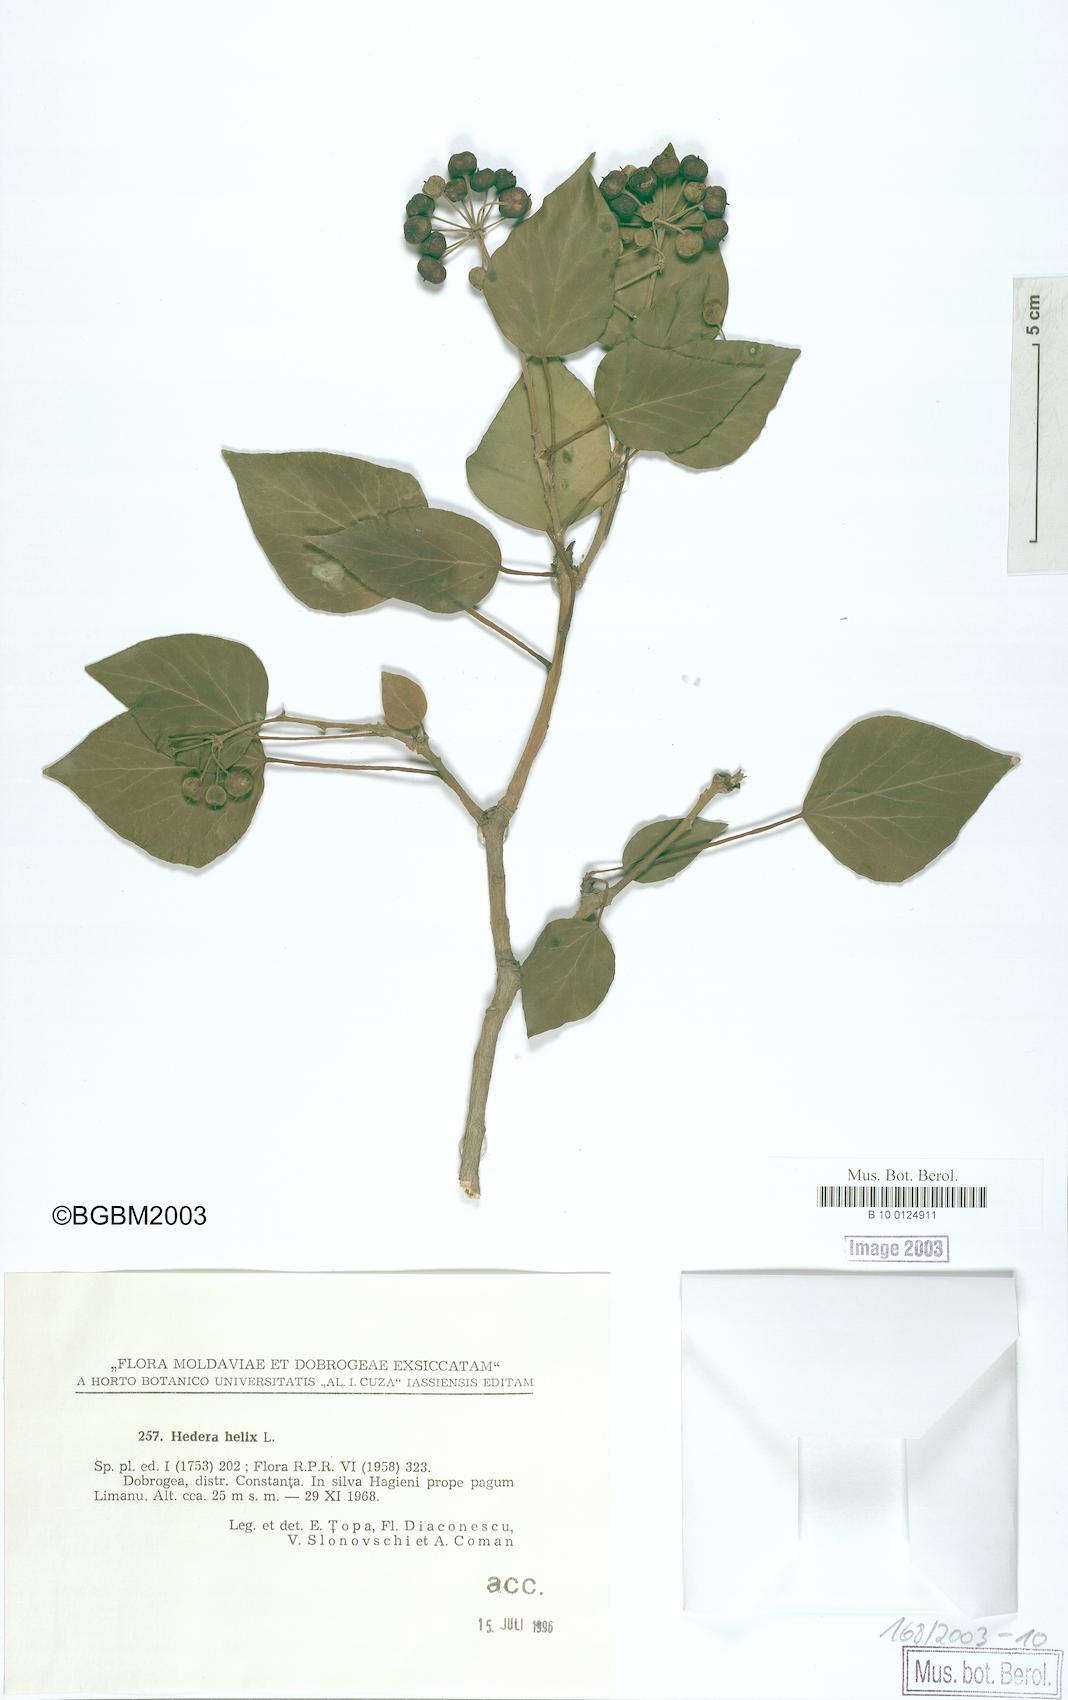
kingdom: Plantae
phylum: Tracheophyta
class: Magnoliopsida
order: Apiales
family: Araliaceae
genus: Hedera
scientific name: Hedera helix
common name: Ivy
